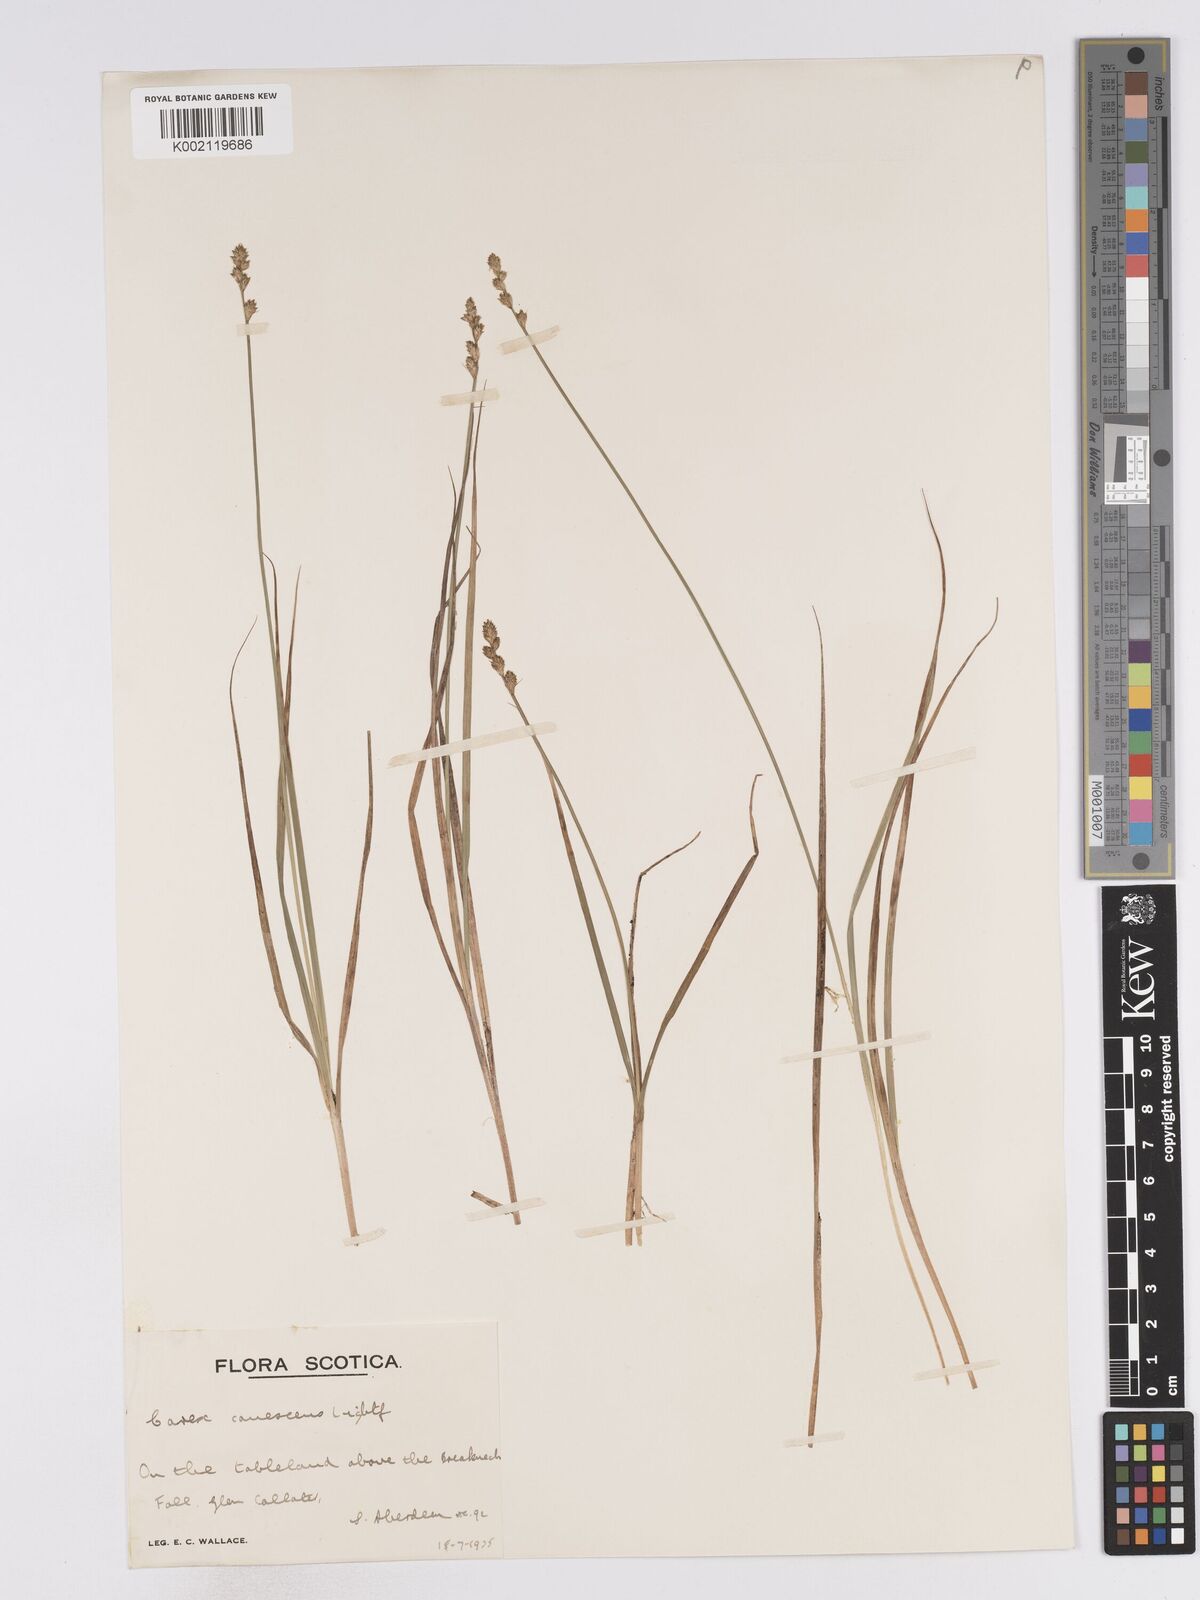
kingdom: Plantae
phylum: Tracheophyta
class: Liliopsida
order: Poales
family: Cyperaceae
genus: Carex
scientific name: Carex curta
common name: White sedge
